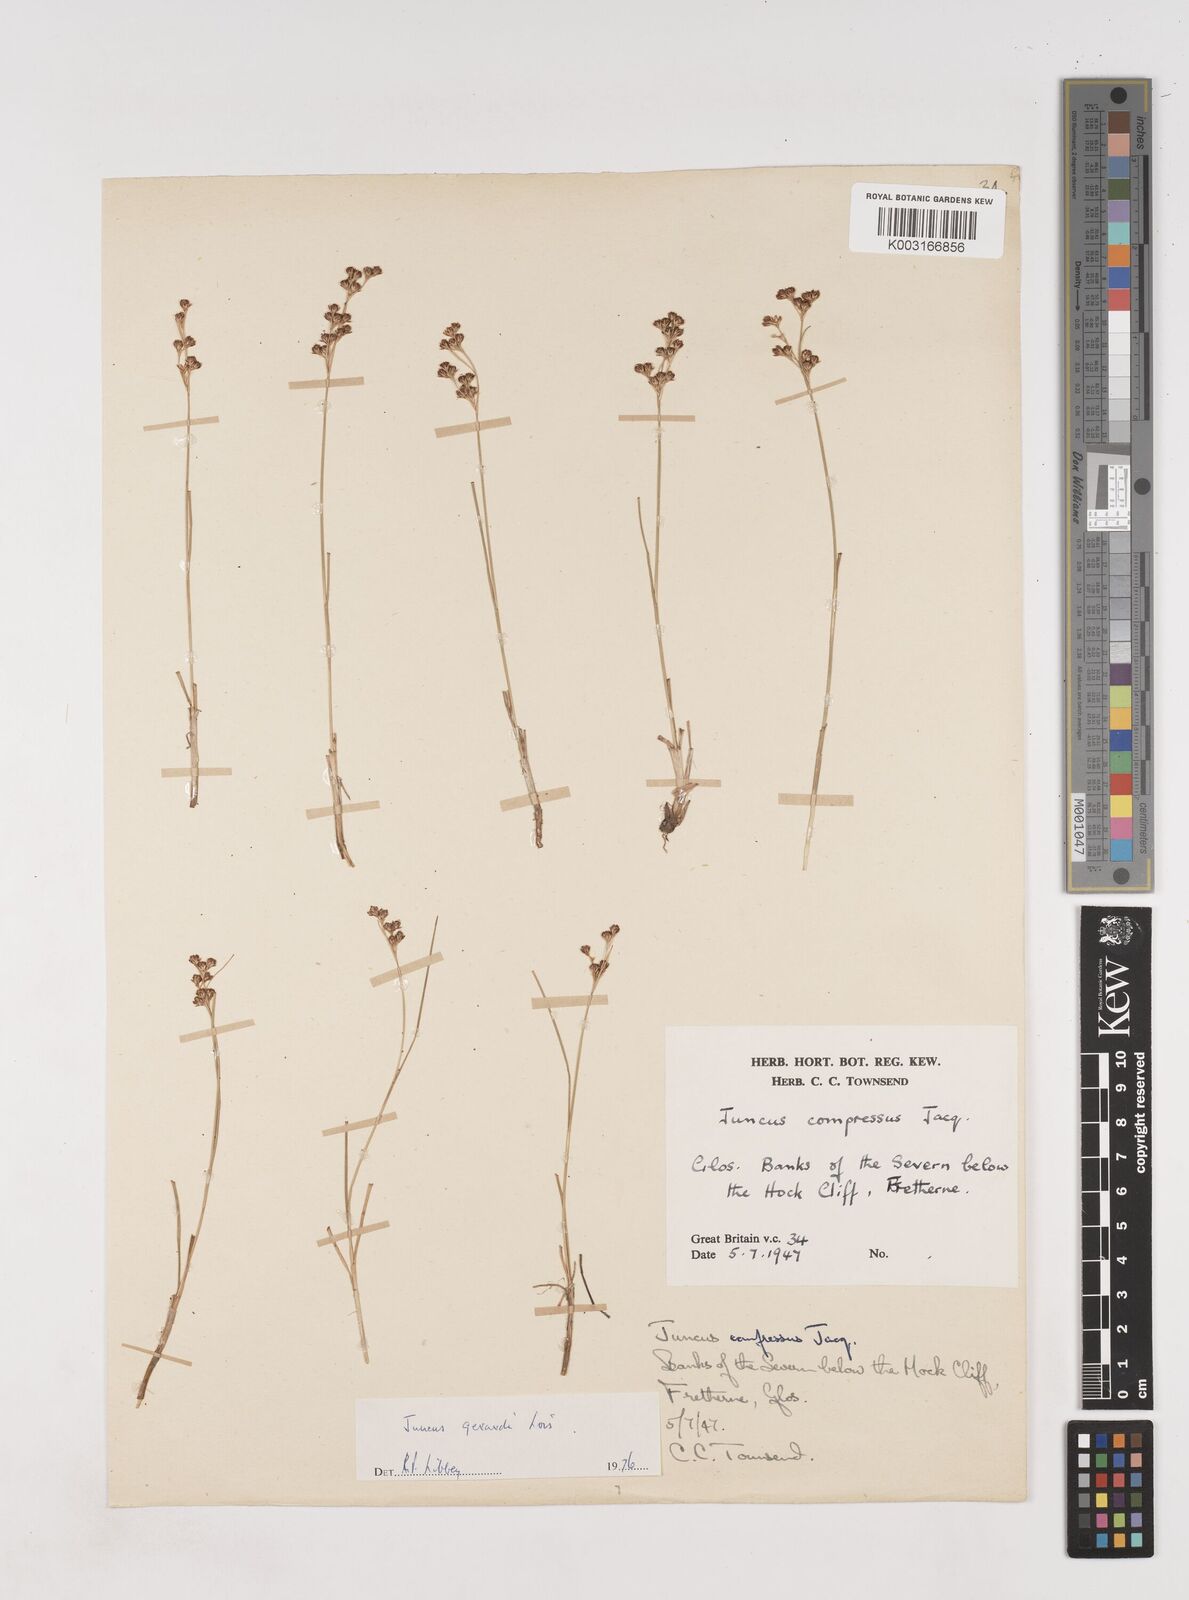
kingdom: Plantae
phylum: Tracheophyta
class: Liliopsida
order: Poales
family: Juncaceae
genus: Juncus
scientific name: Juncus gerardi
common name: Saltmarsh rush
